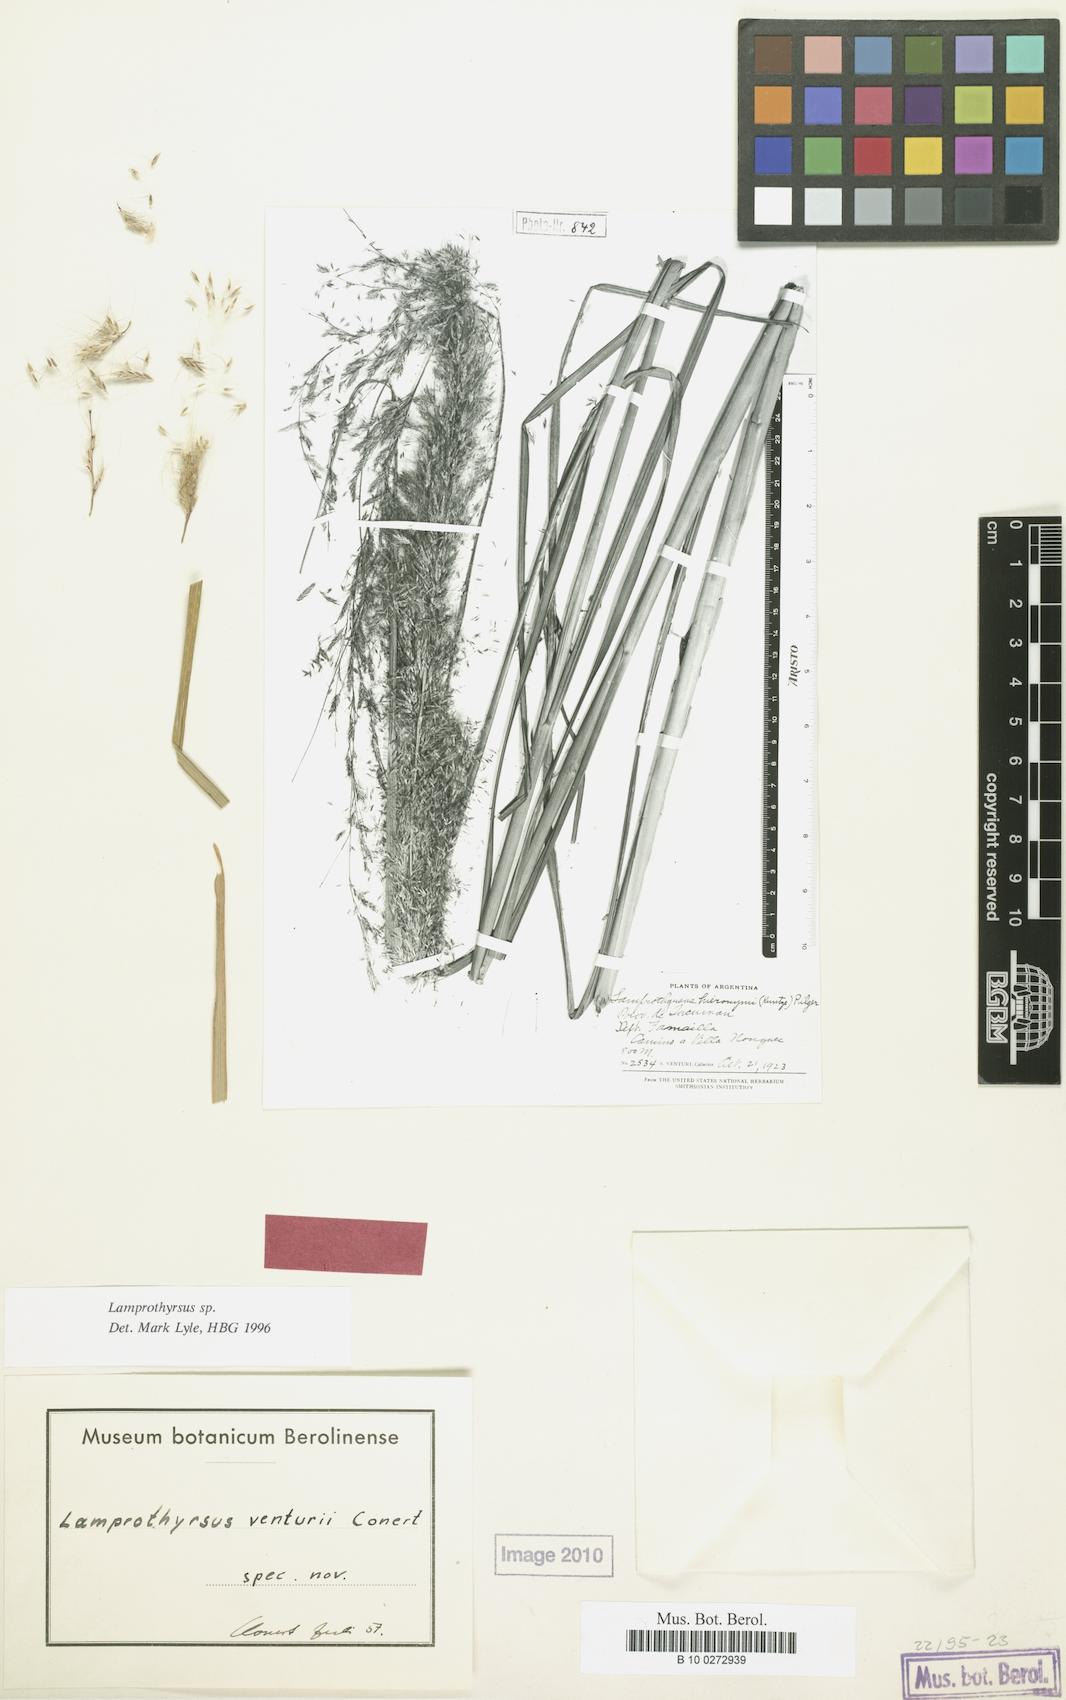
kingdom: Plantae
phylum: Tracheophyta
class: Liliopsida
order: Poales
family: Poaceae
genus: Cortaderia
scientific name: Cortaderia hieronymi
